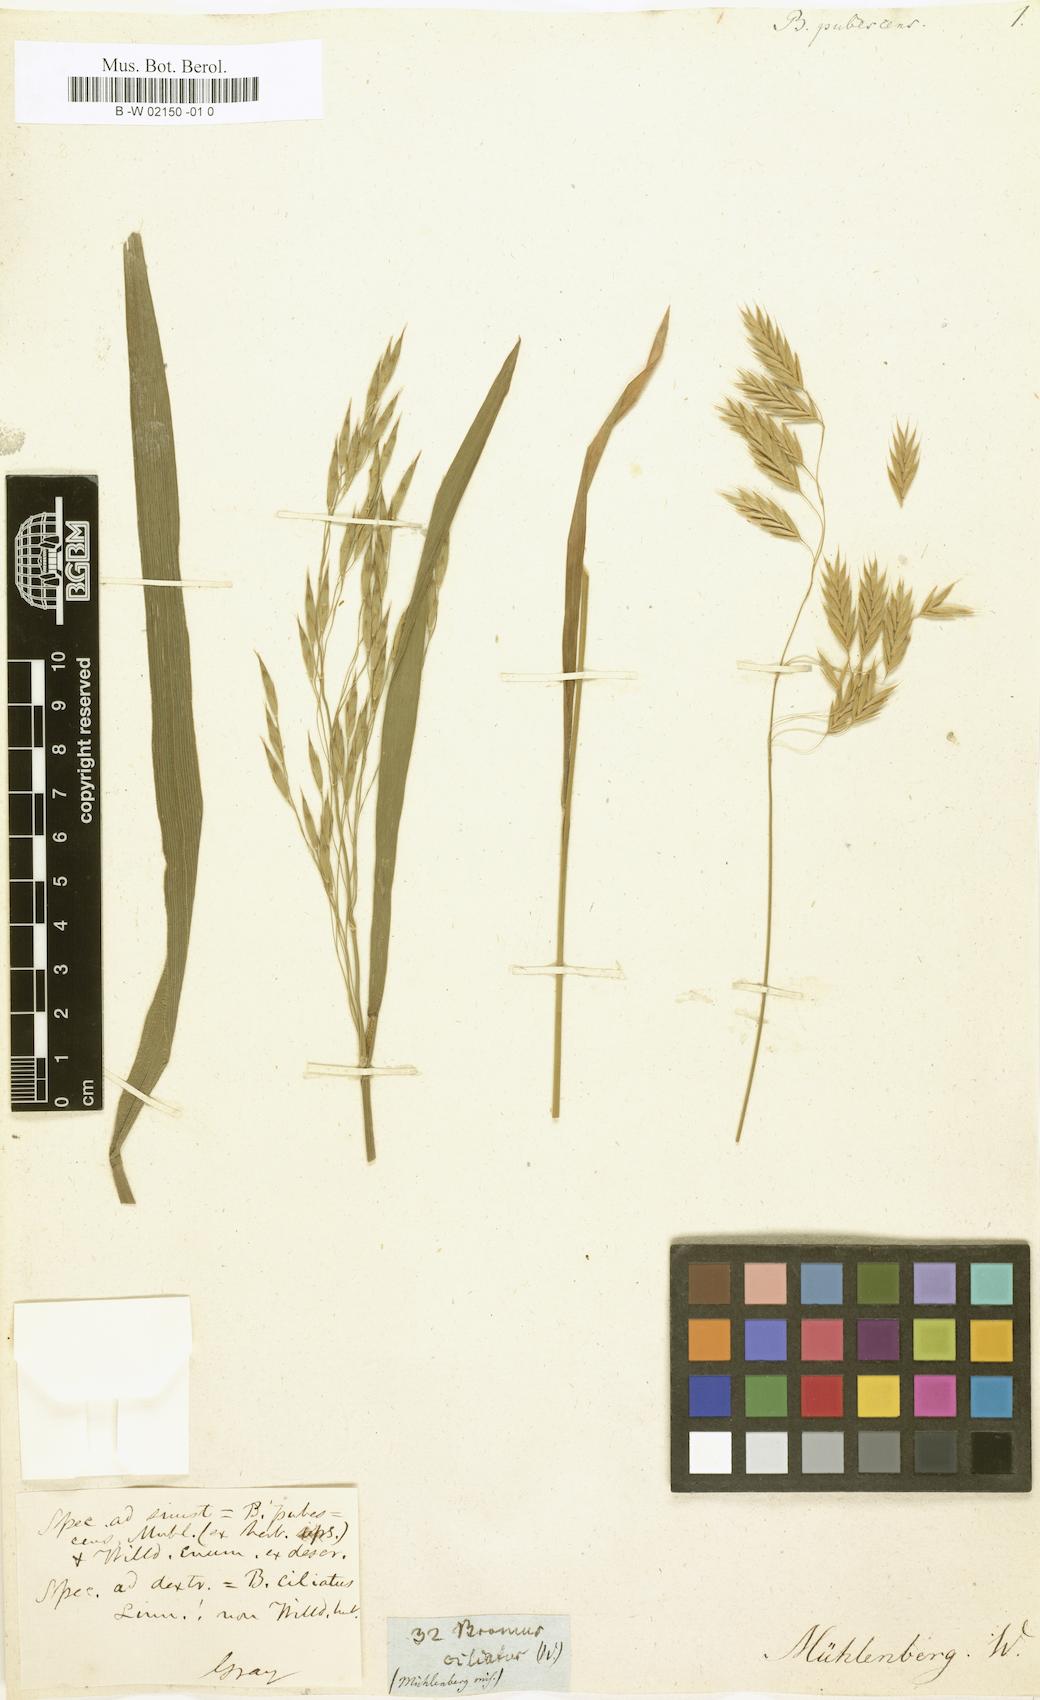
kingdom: Plantae
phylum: Tracheophyta
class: Liliopsida
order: Poales
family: Poaceae
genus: Bromus
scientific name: Bromus pubescens
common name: Hairy wood brome grass
